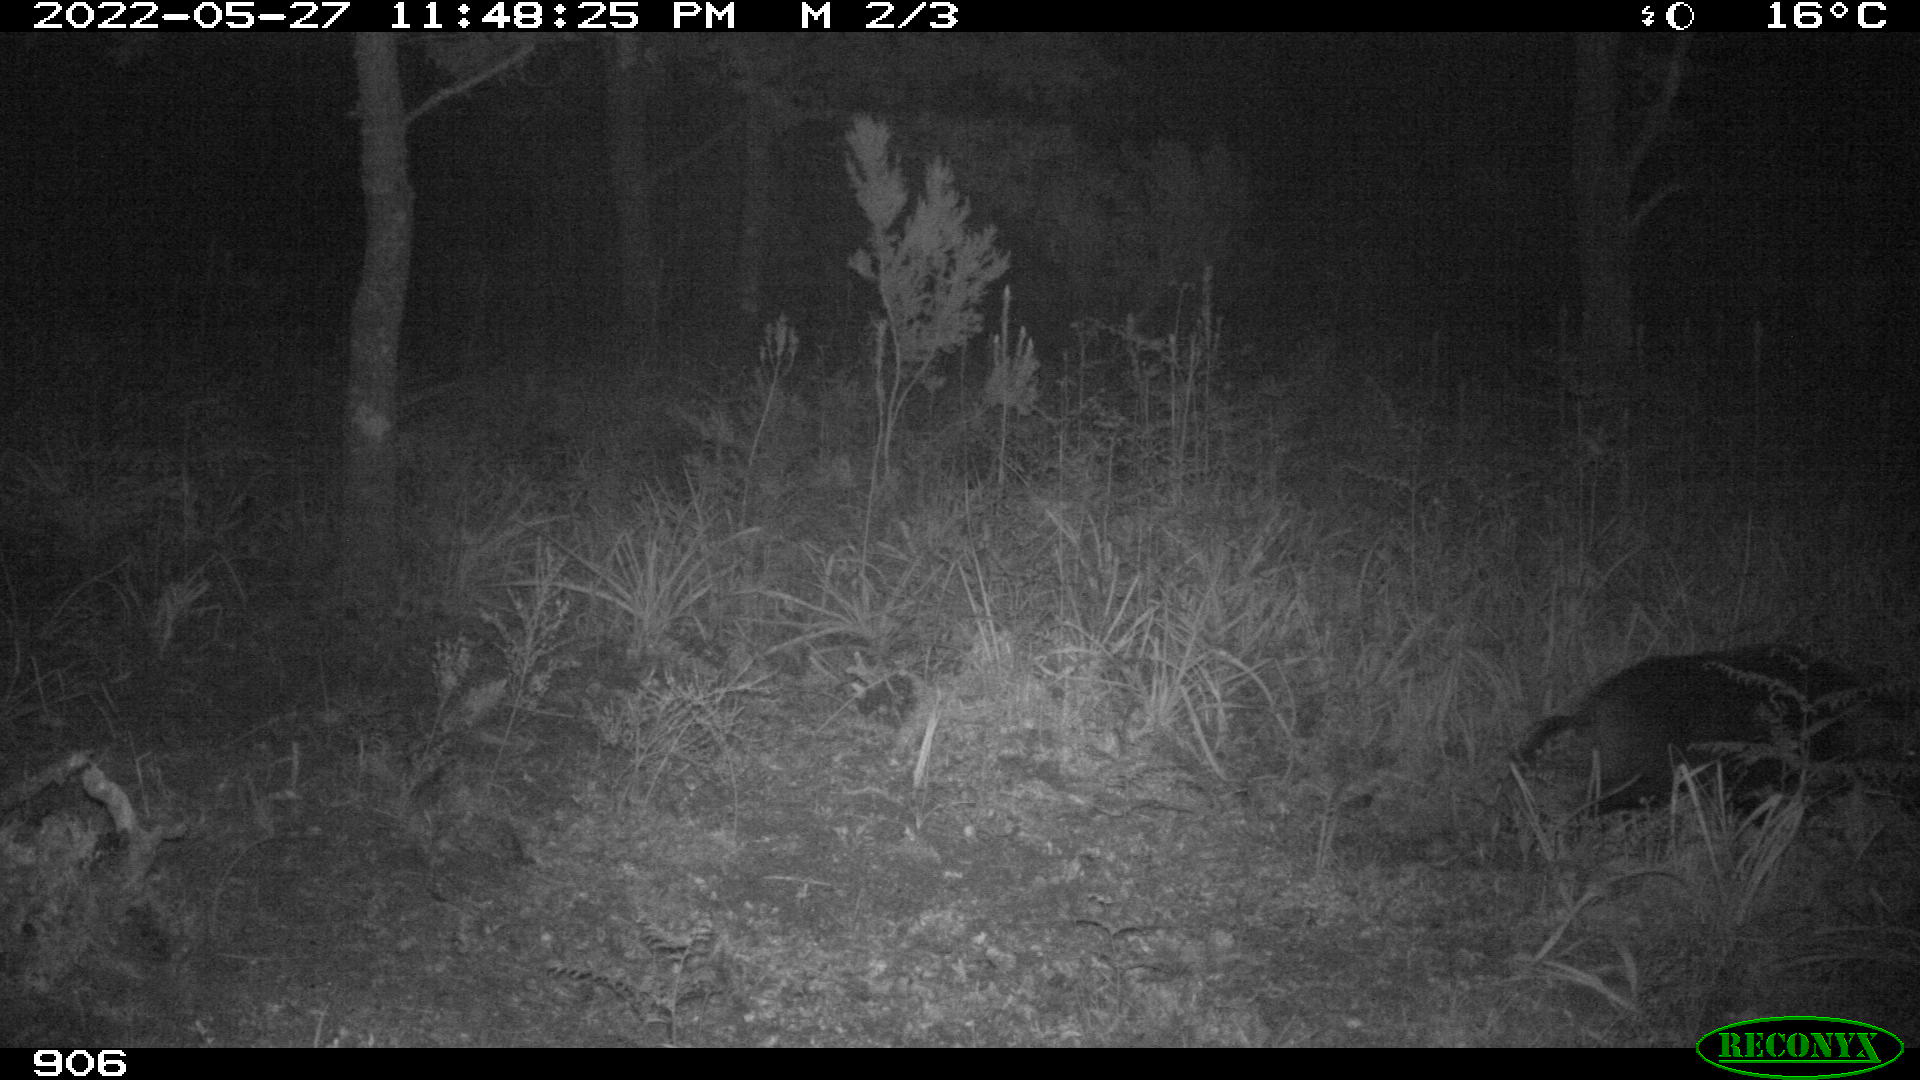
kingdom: Animalia
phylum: Chordata
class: Mammalia
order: Artiodactyla
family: Suidae
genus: Sus
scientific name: Sus scrofa
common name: Wild boar
